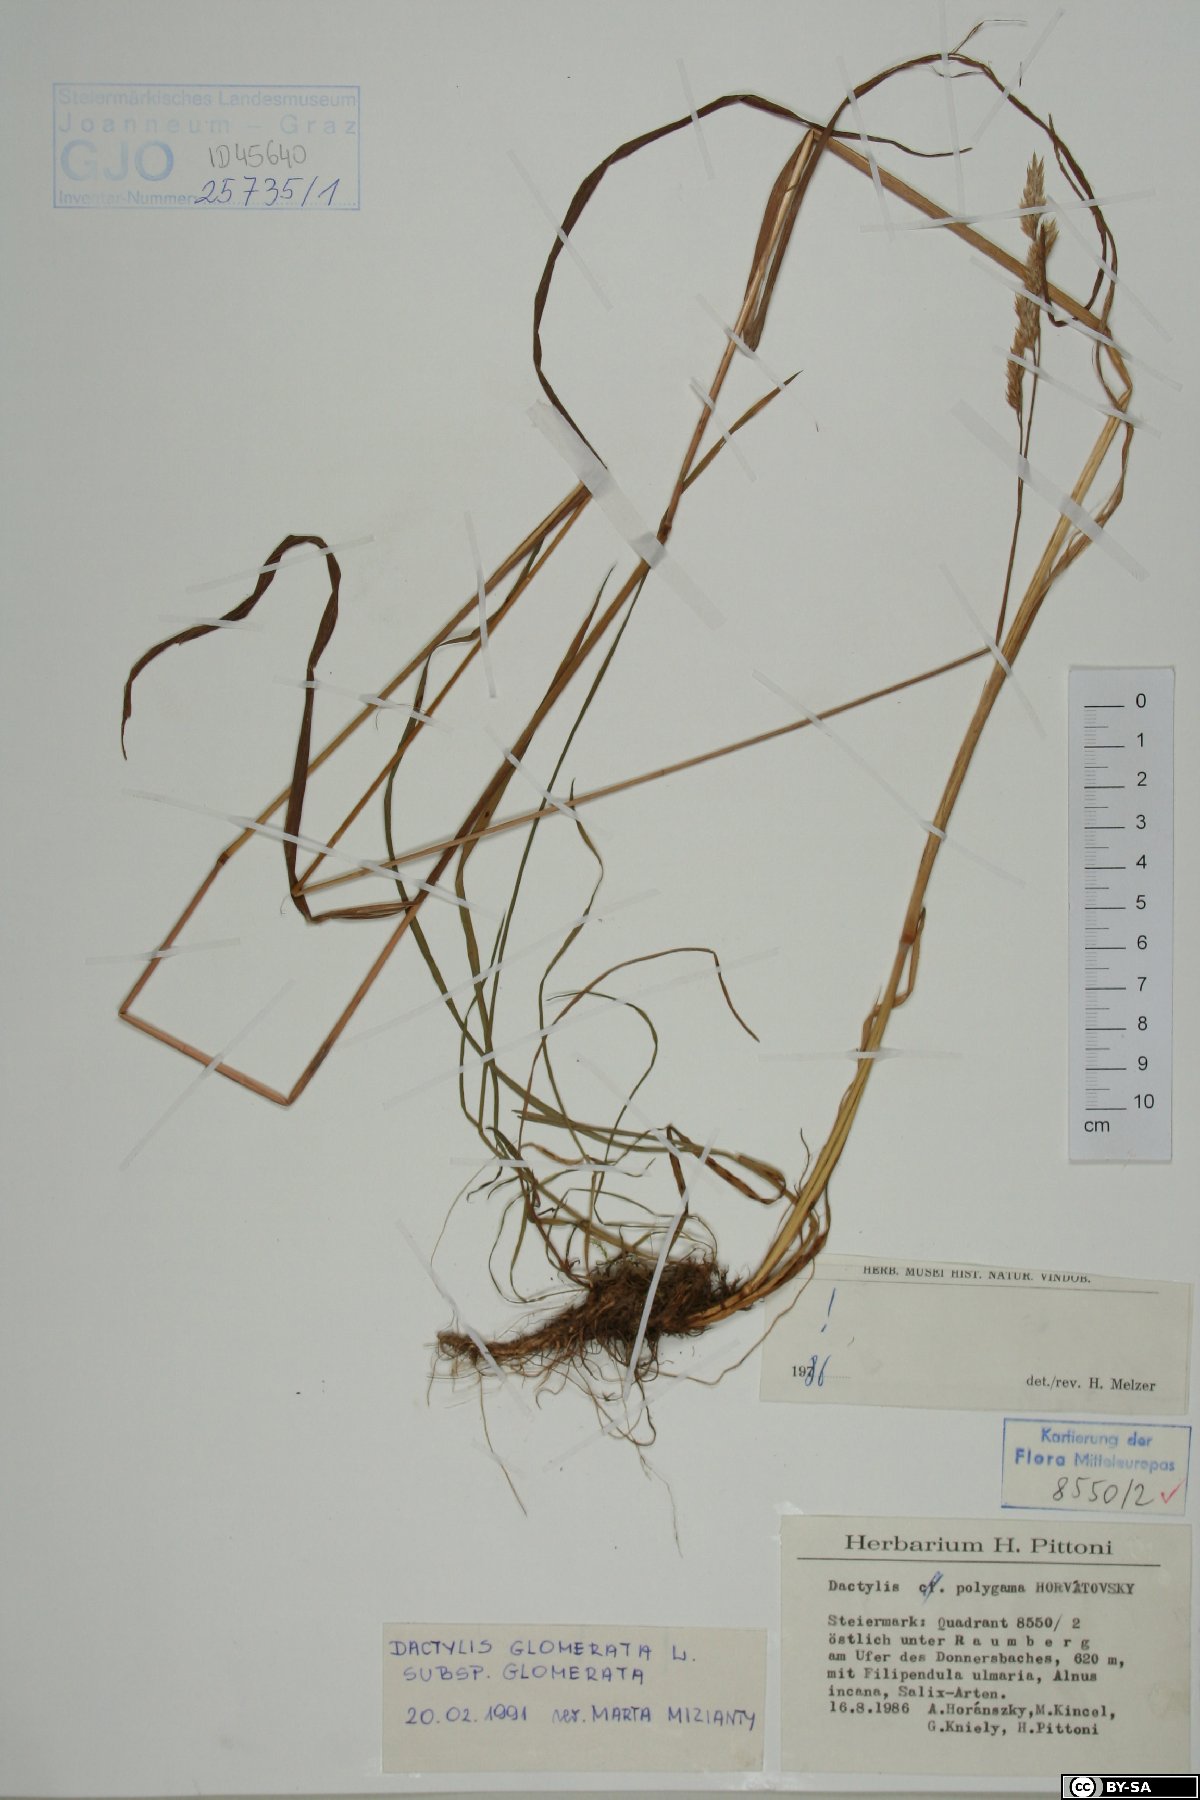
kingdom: Plantae
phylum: Tracheophyta
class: Liliopsida
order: Poales
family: Poaceae
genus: Dactylis
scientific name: Dactylis glomerata
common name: Orchardgrass
